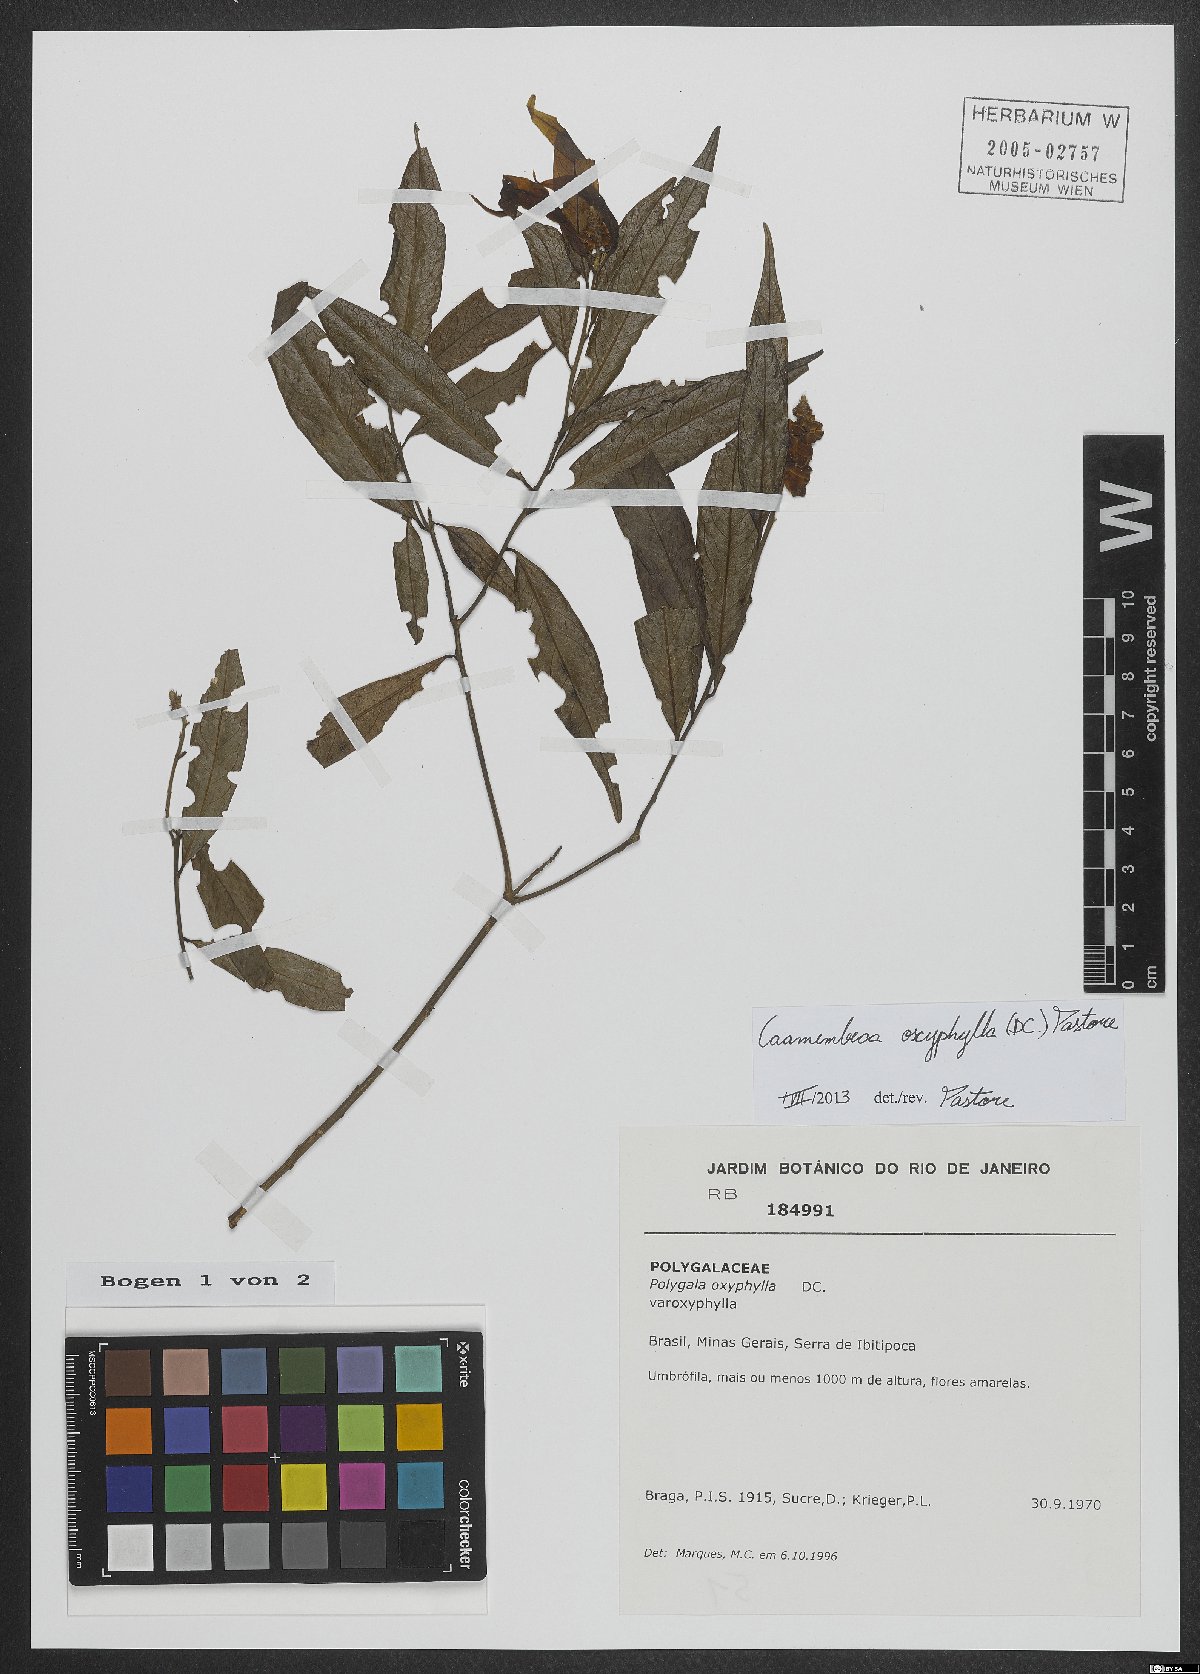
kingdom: Plantae
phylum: Tracheophyta
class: Magnoliopsida
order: Fabales
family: Polygalaceae
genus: Caamembeca
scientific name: Caamembeca oxyphylla
